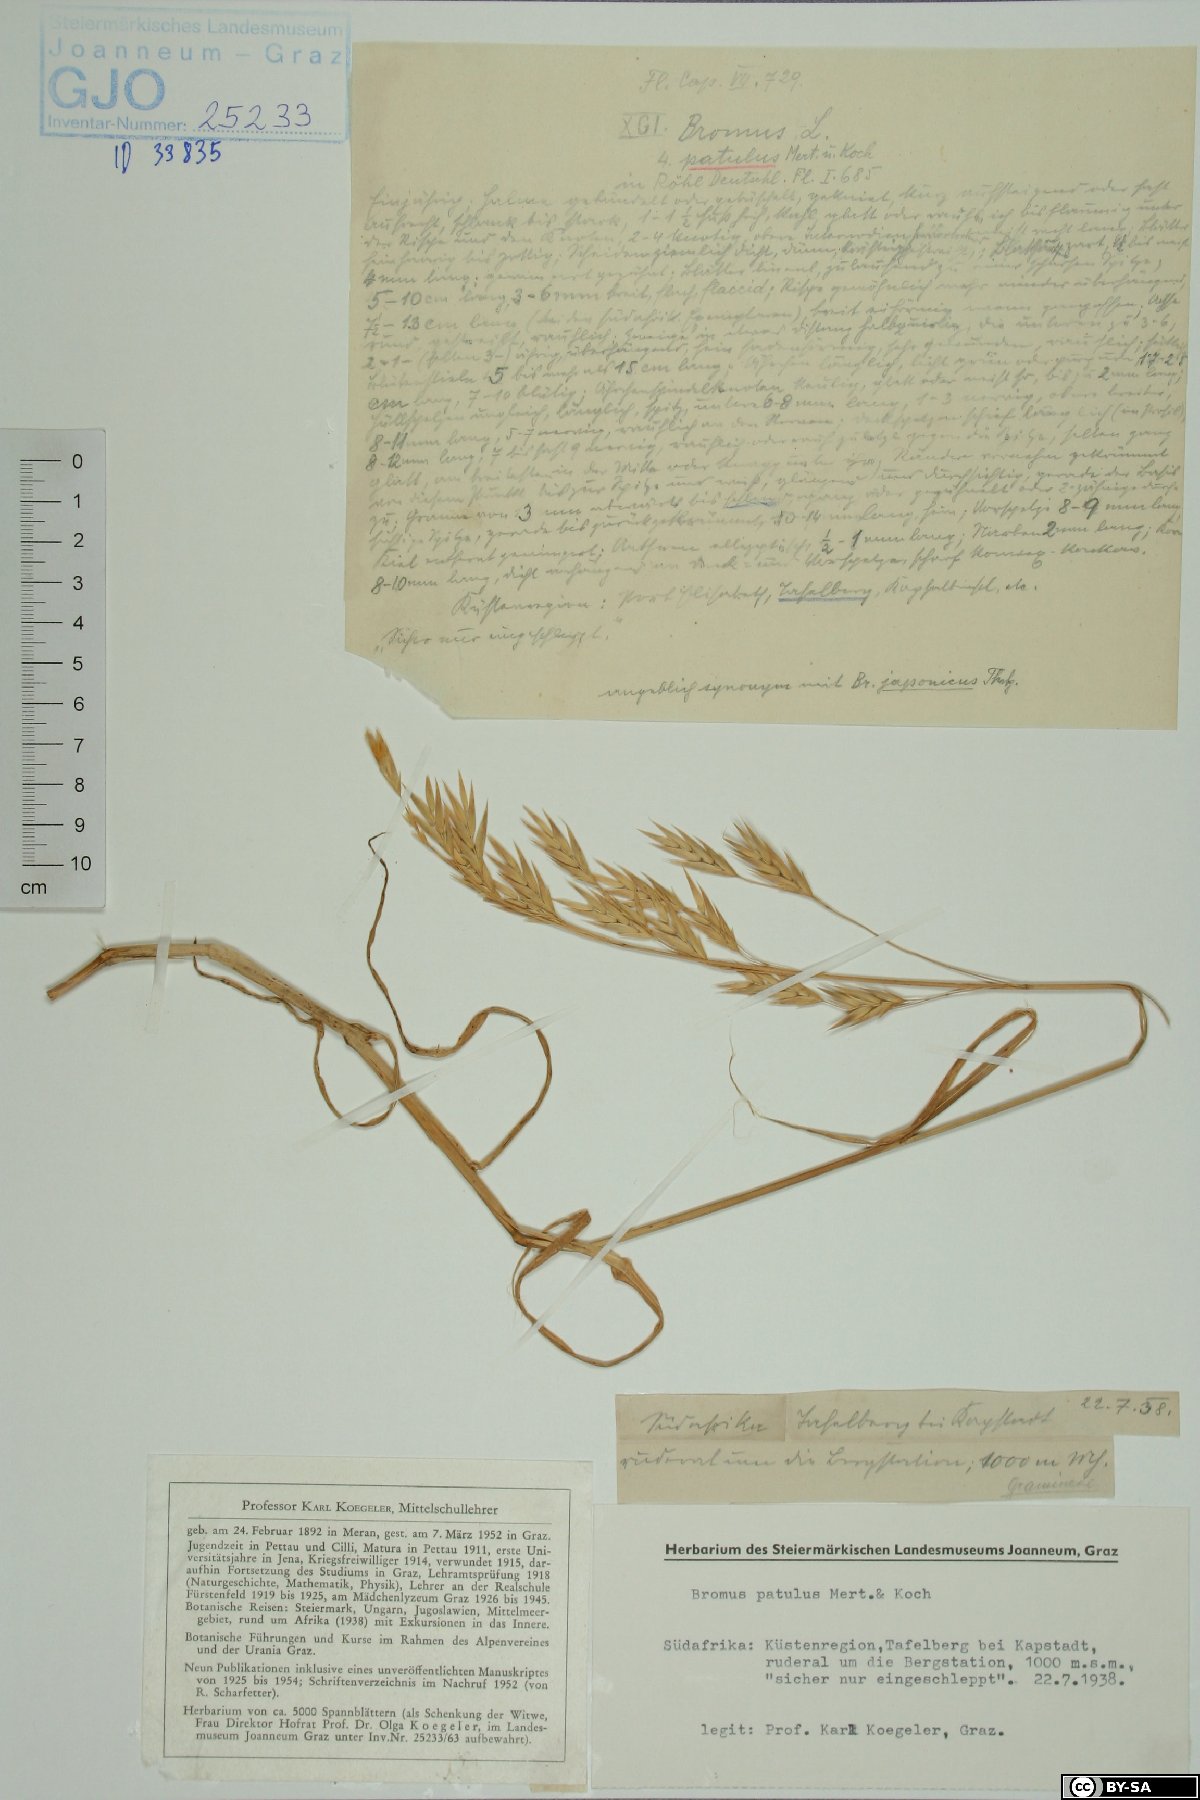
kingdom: Plantae
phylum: Tracheophyta
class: Liliopsida
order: Poales
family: Poaceae
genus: Bromus
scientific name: Bromus japonicus
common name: Japanese brome
